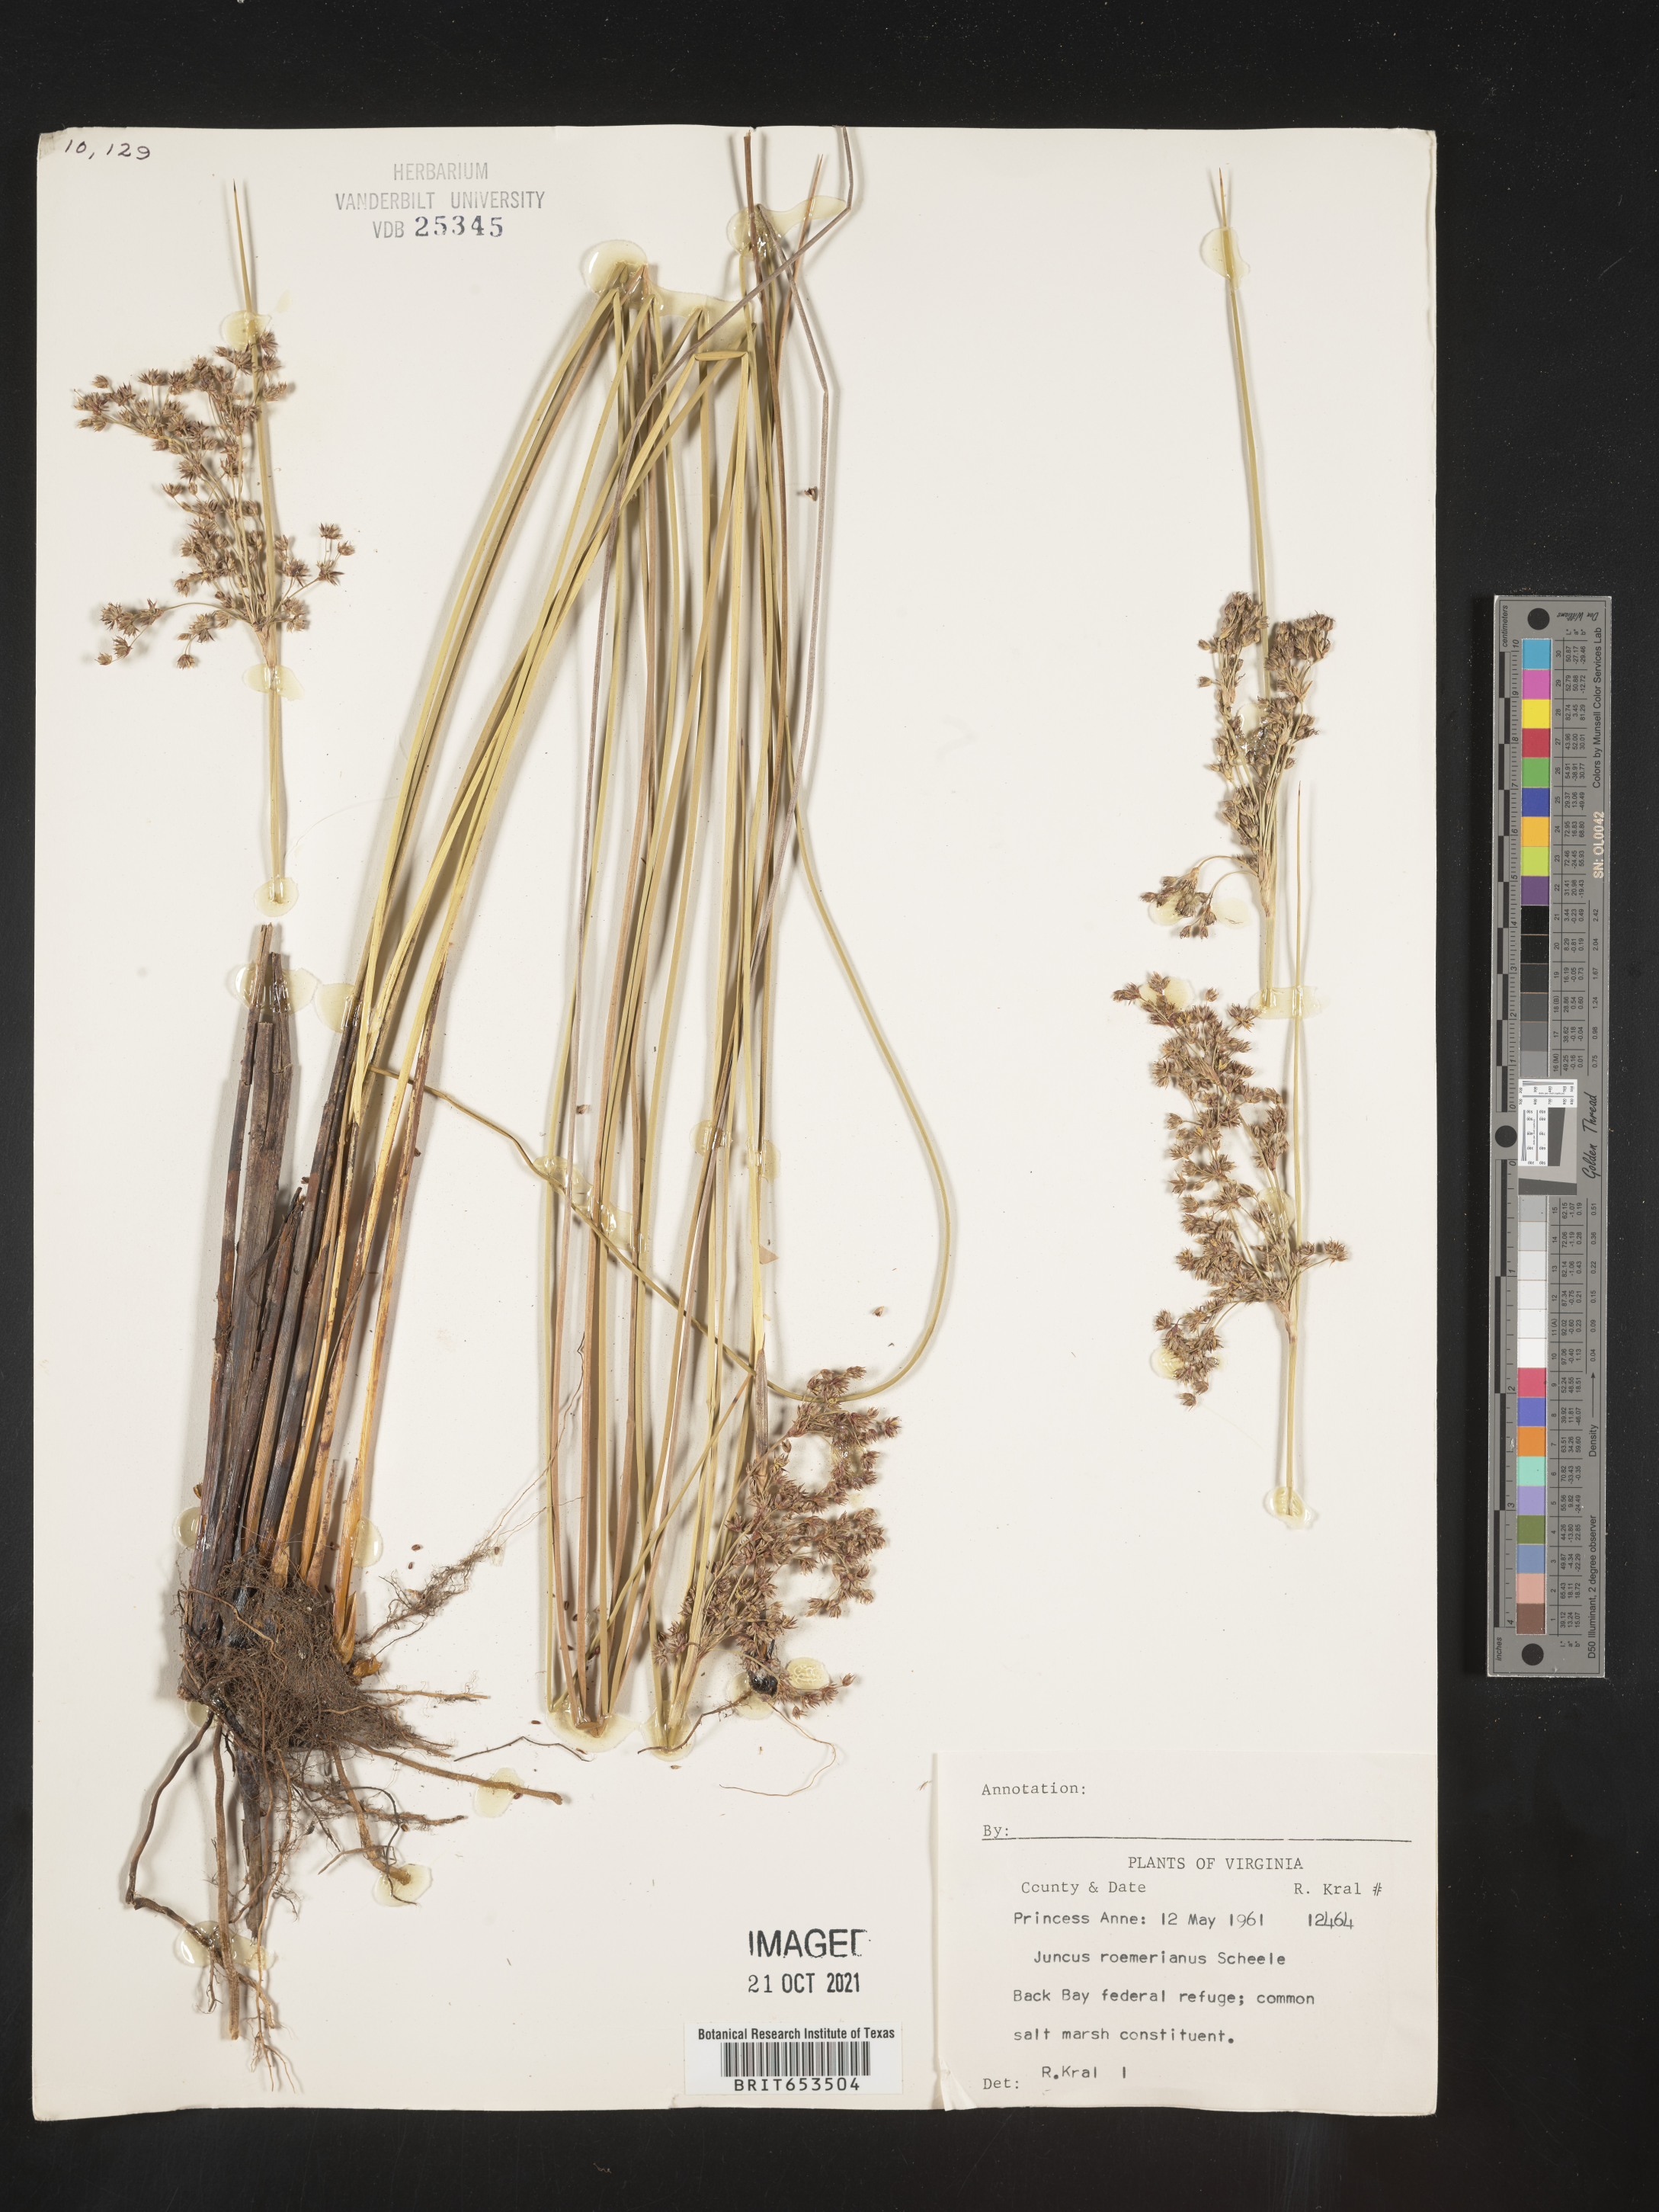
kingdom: Plantae
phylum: Tracheophyta
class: Liliopsida
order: Poales
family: Juncaceae
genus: Juncus
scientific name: Juncus roemerianus
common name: Roemer's rush
